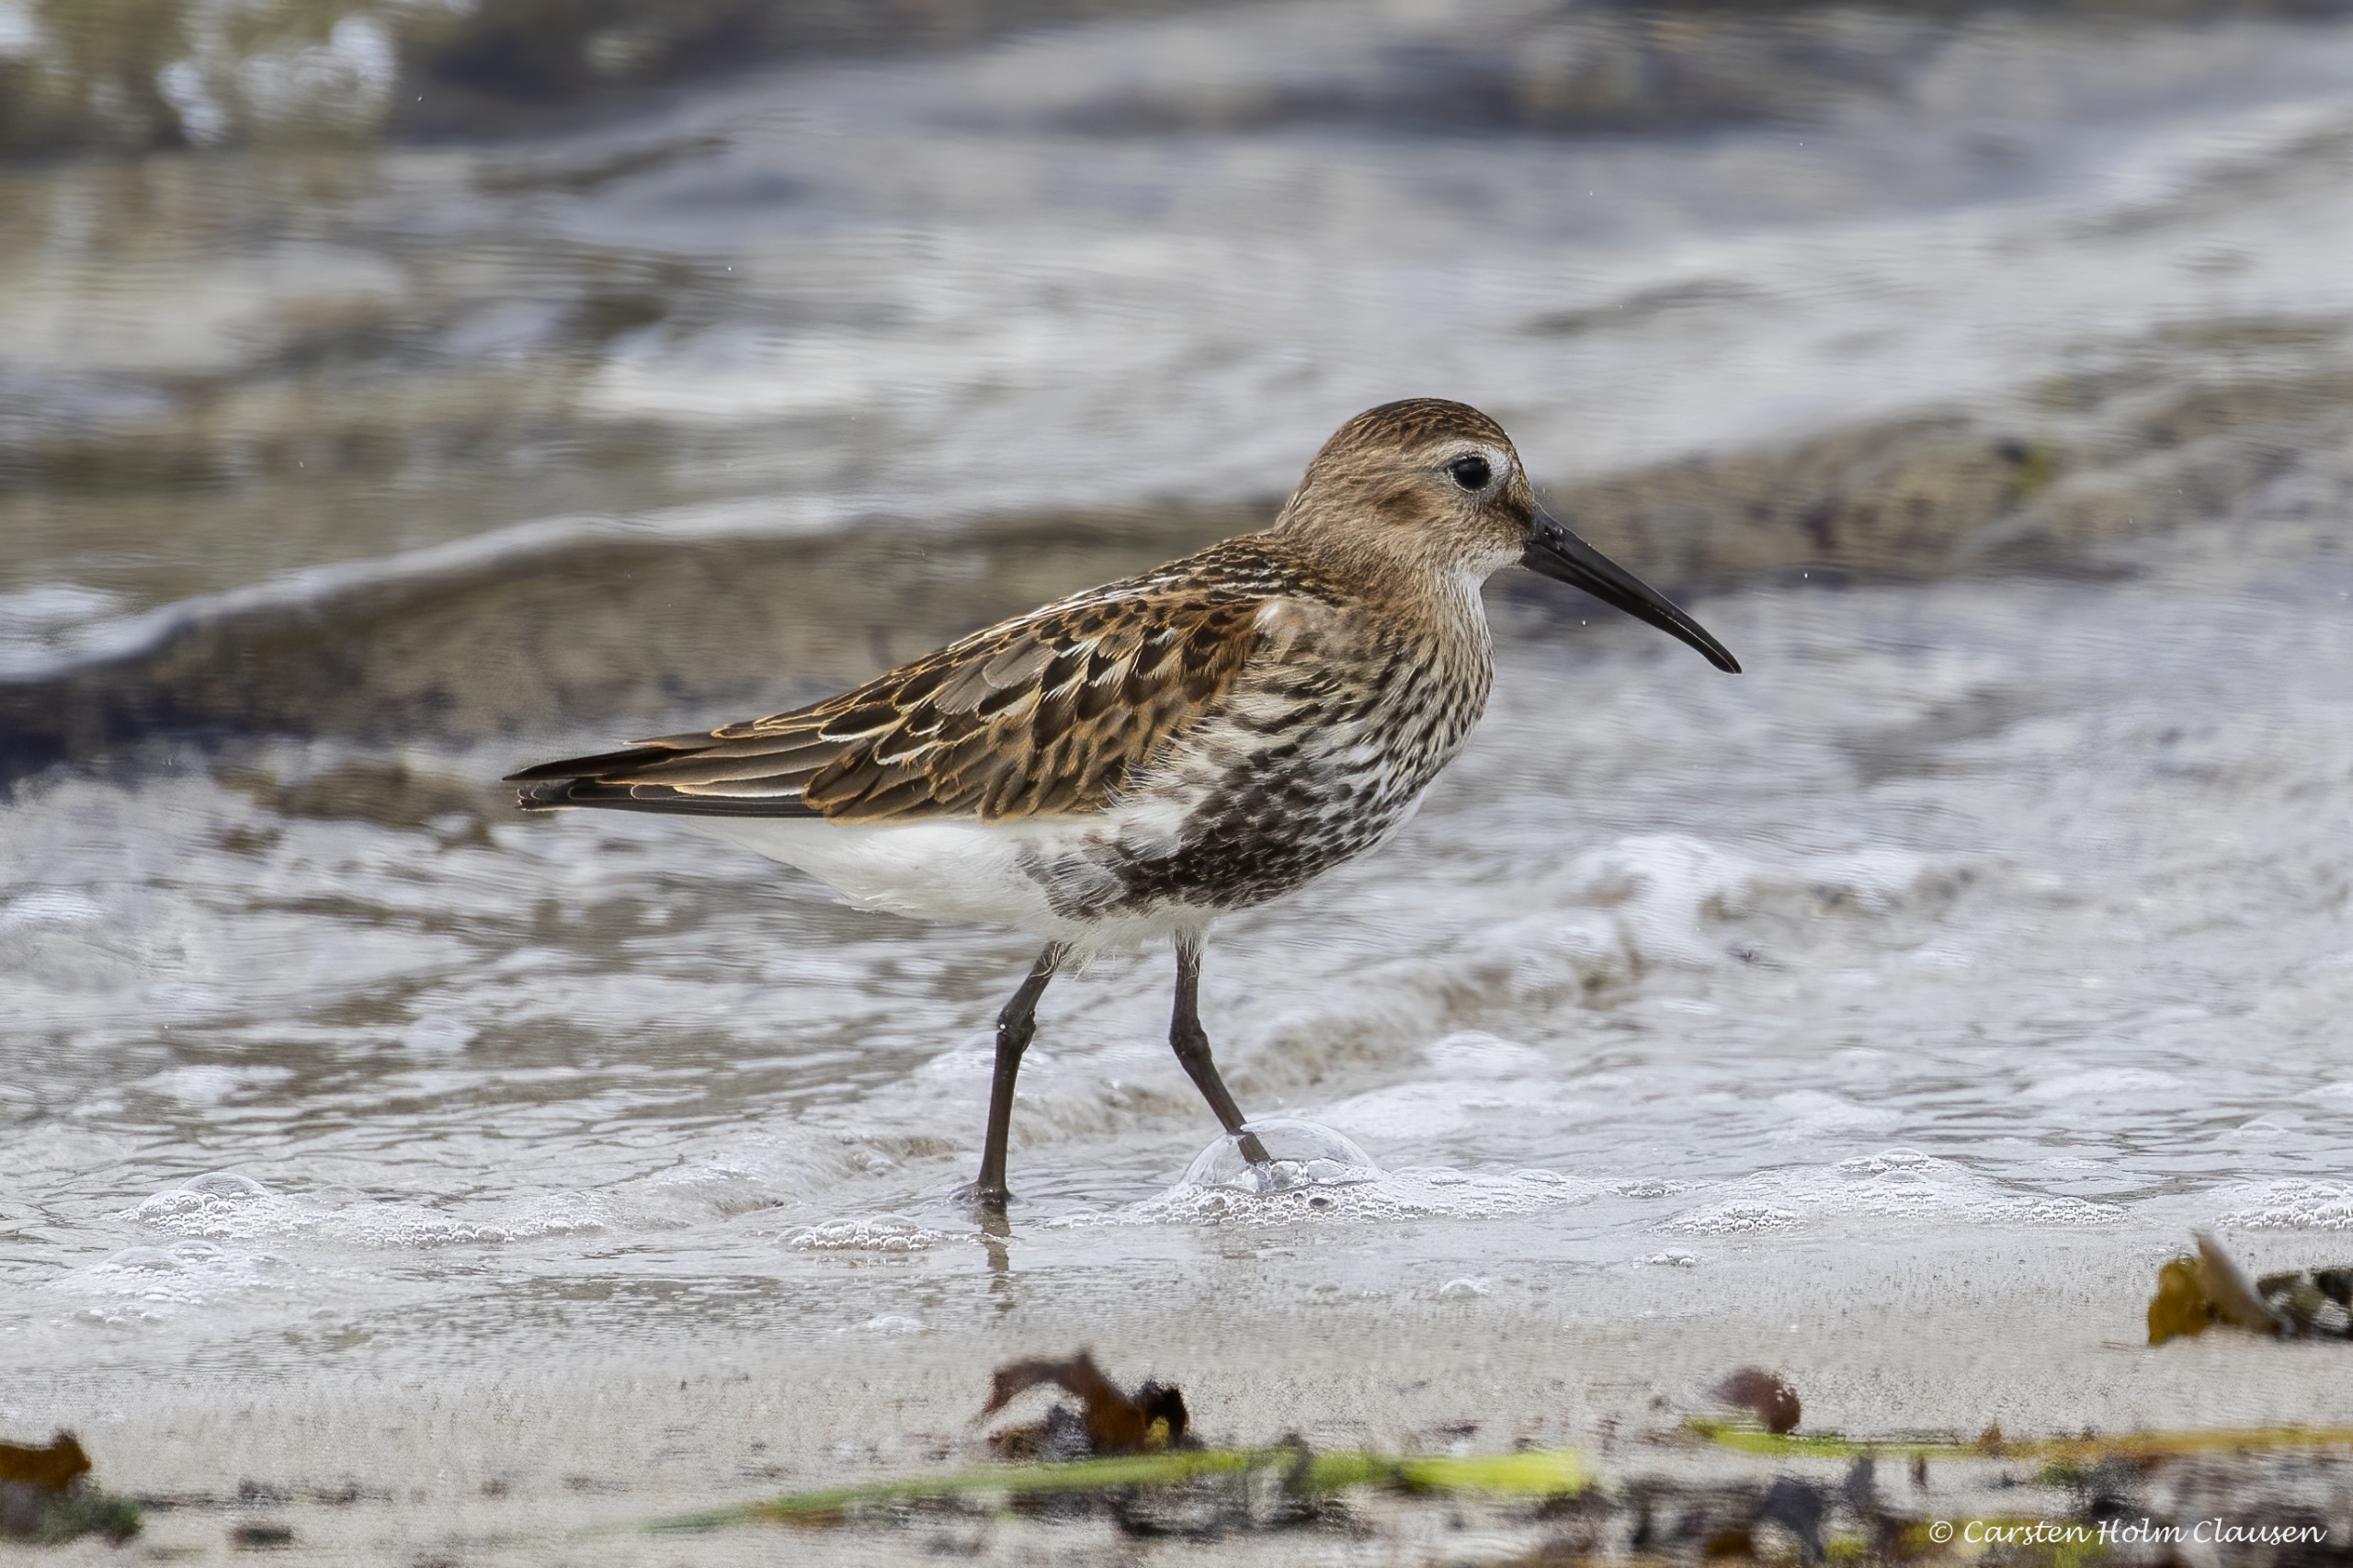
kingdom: Animalia
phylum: Chordata
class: Aves
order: Charadriiformes
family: Scolopacidae
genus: Calidris
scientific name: Calidris alpina
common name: Almindelig ryle
